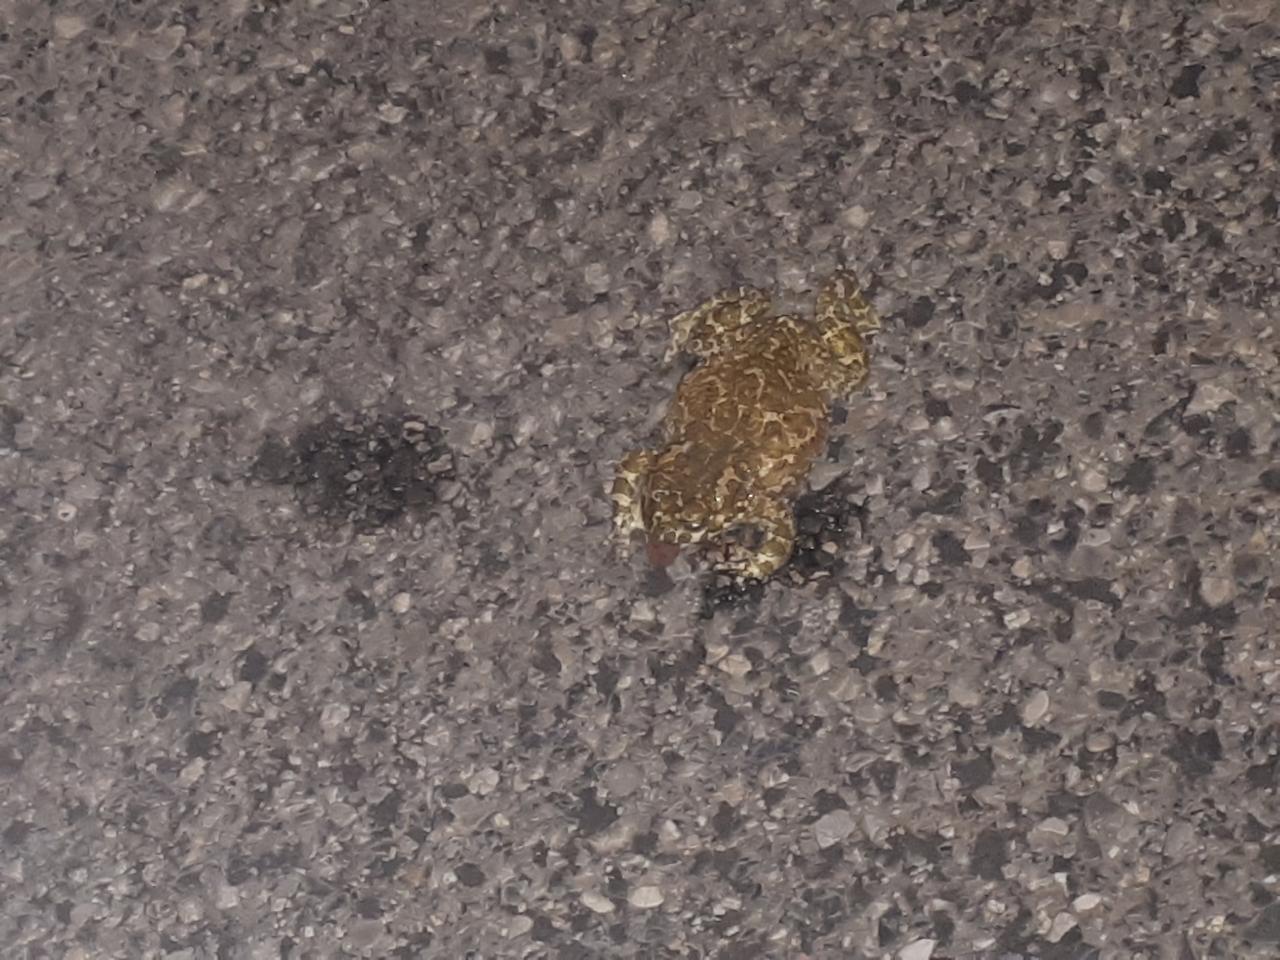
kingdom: Animalia
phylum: Chordata
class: Amphibia
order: Anura
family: Bufonidae
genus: Bufotes
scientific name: Bufotes viridis
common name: European green toad
